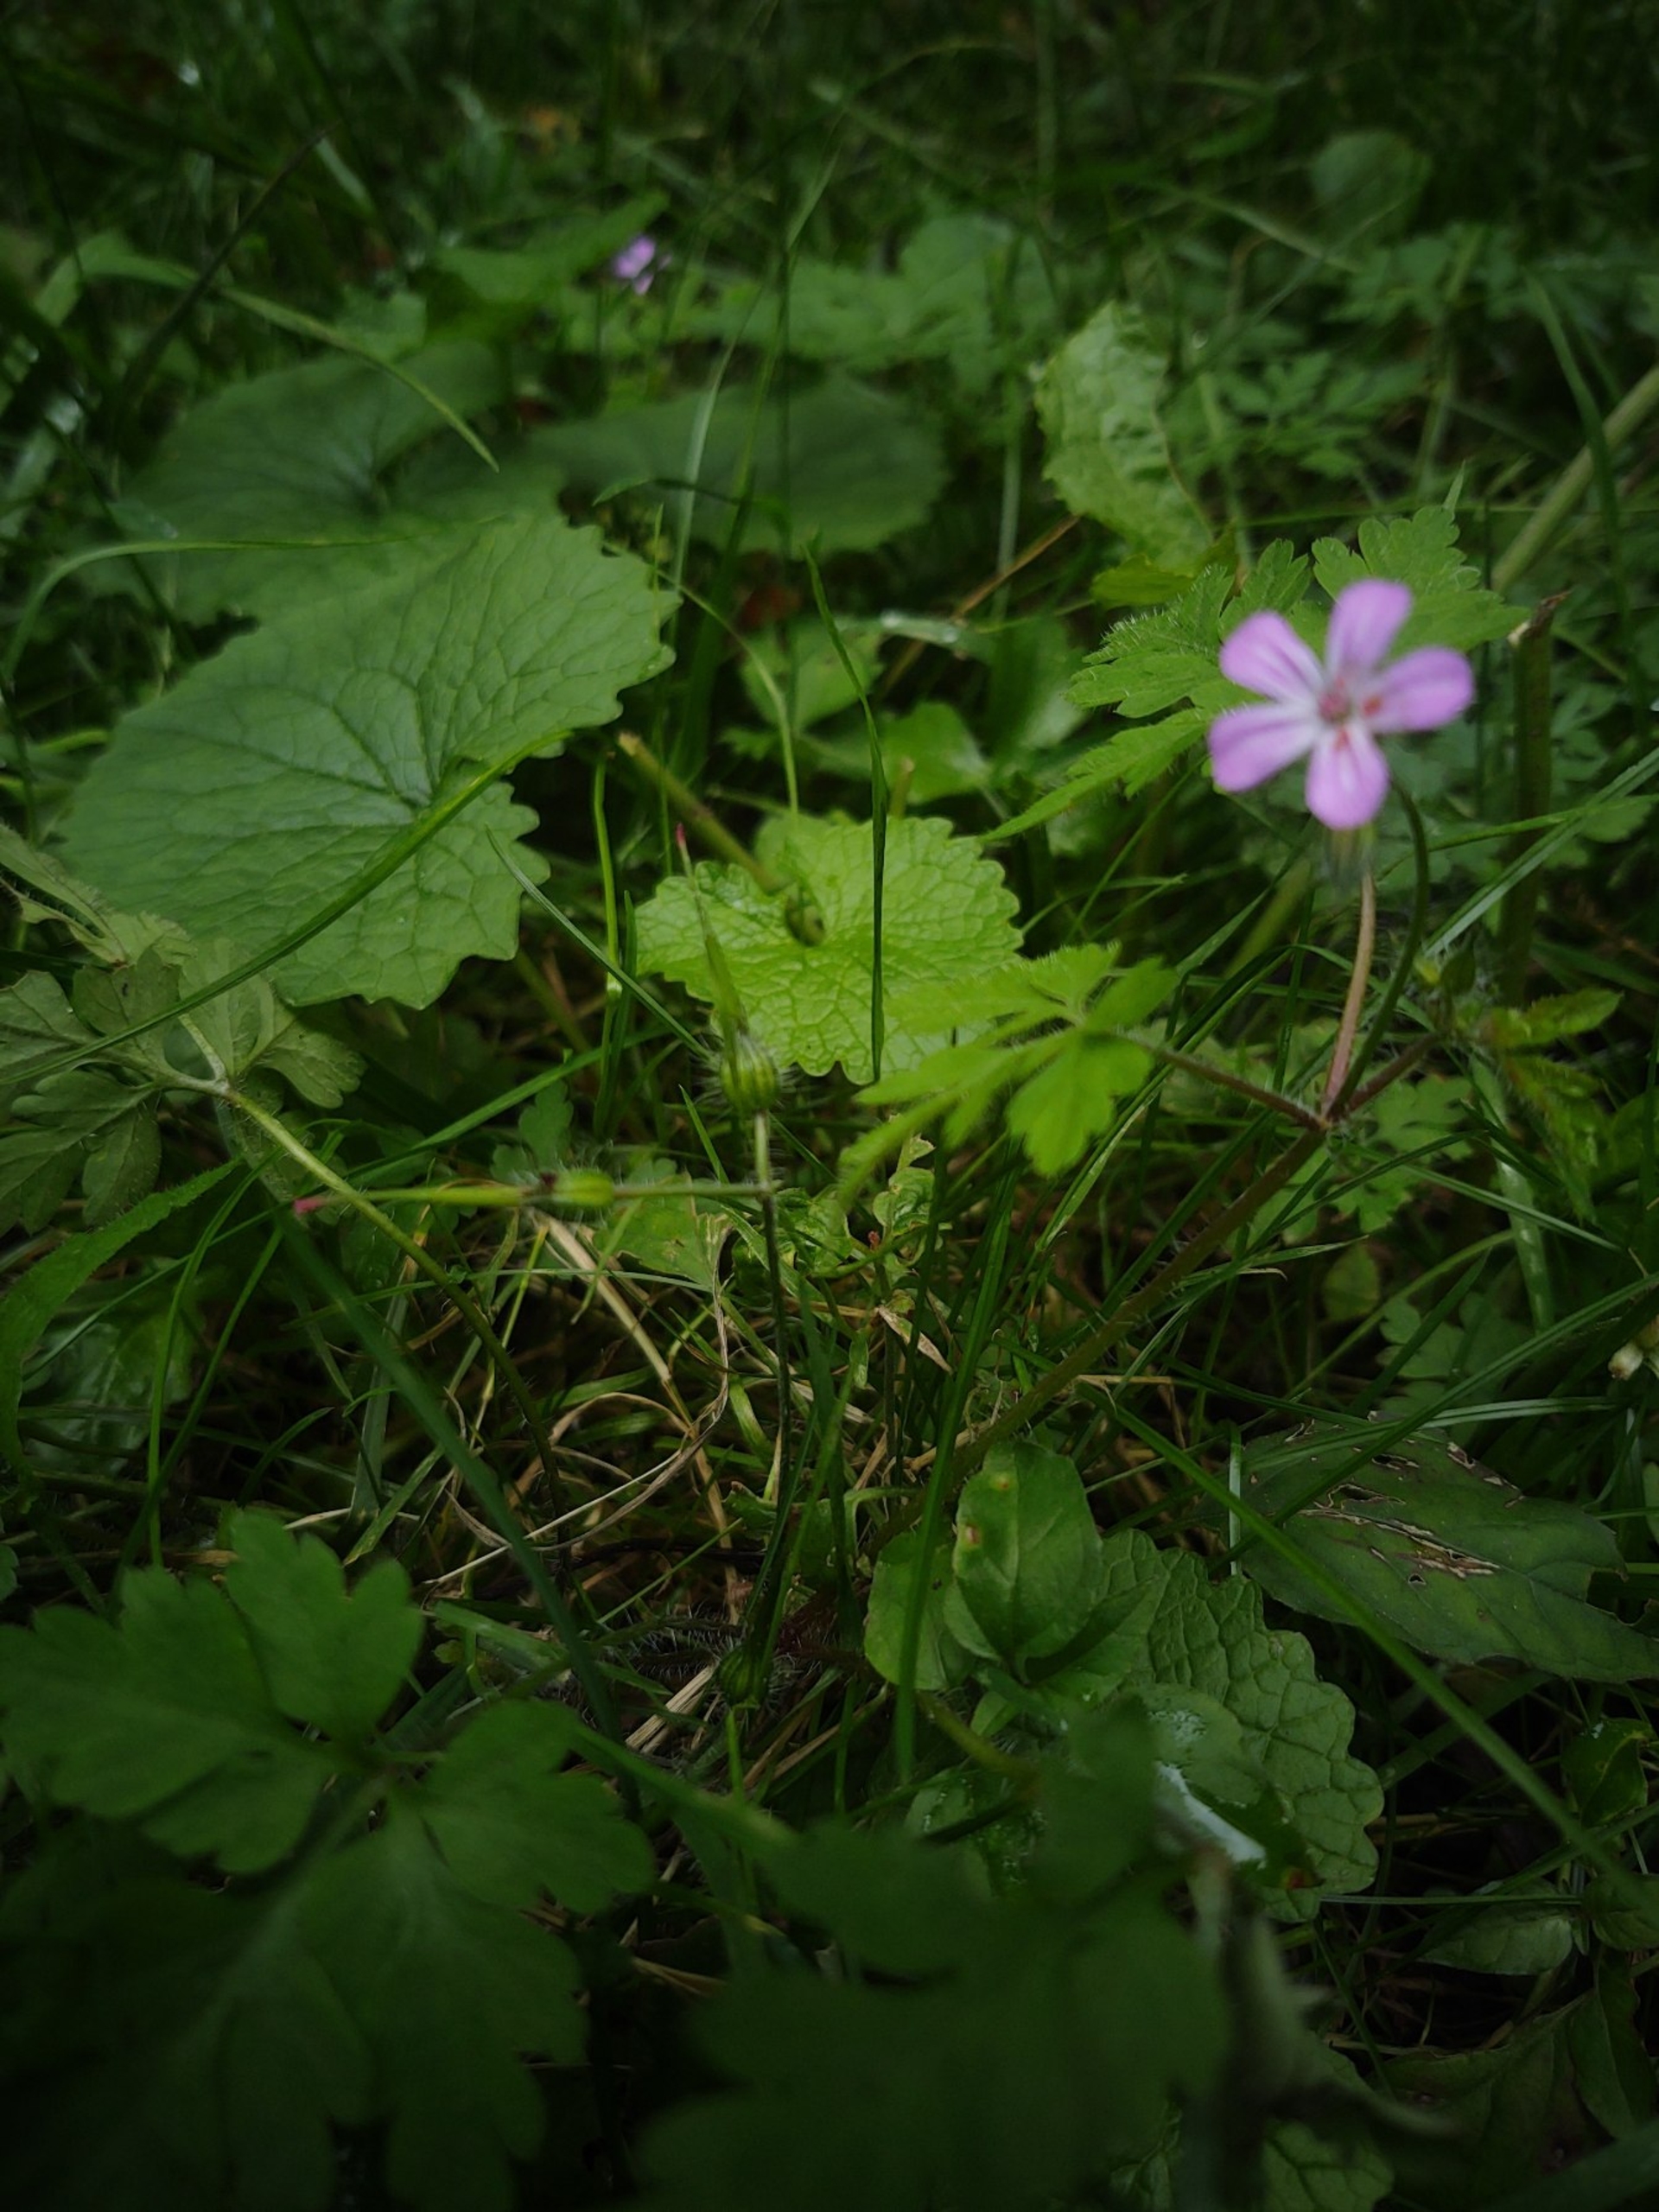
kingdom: Plantae
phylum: Tracheophyta
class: Magnoliopsida
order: Geraniales
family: Geraniaceae
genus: Geranium
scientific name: Geranium robertianum
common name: Stinkende storkenæb
